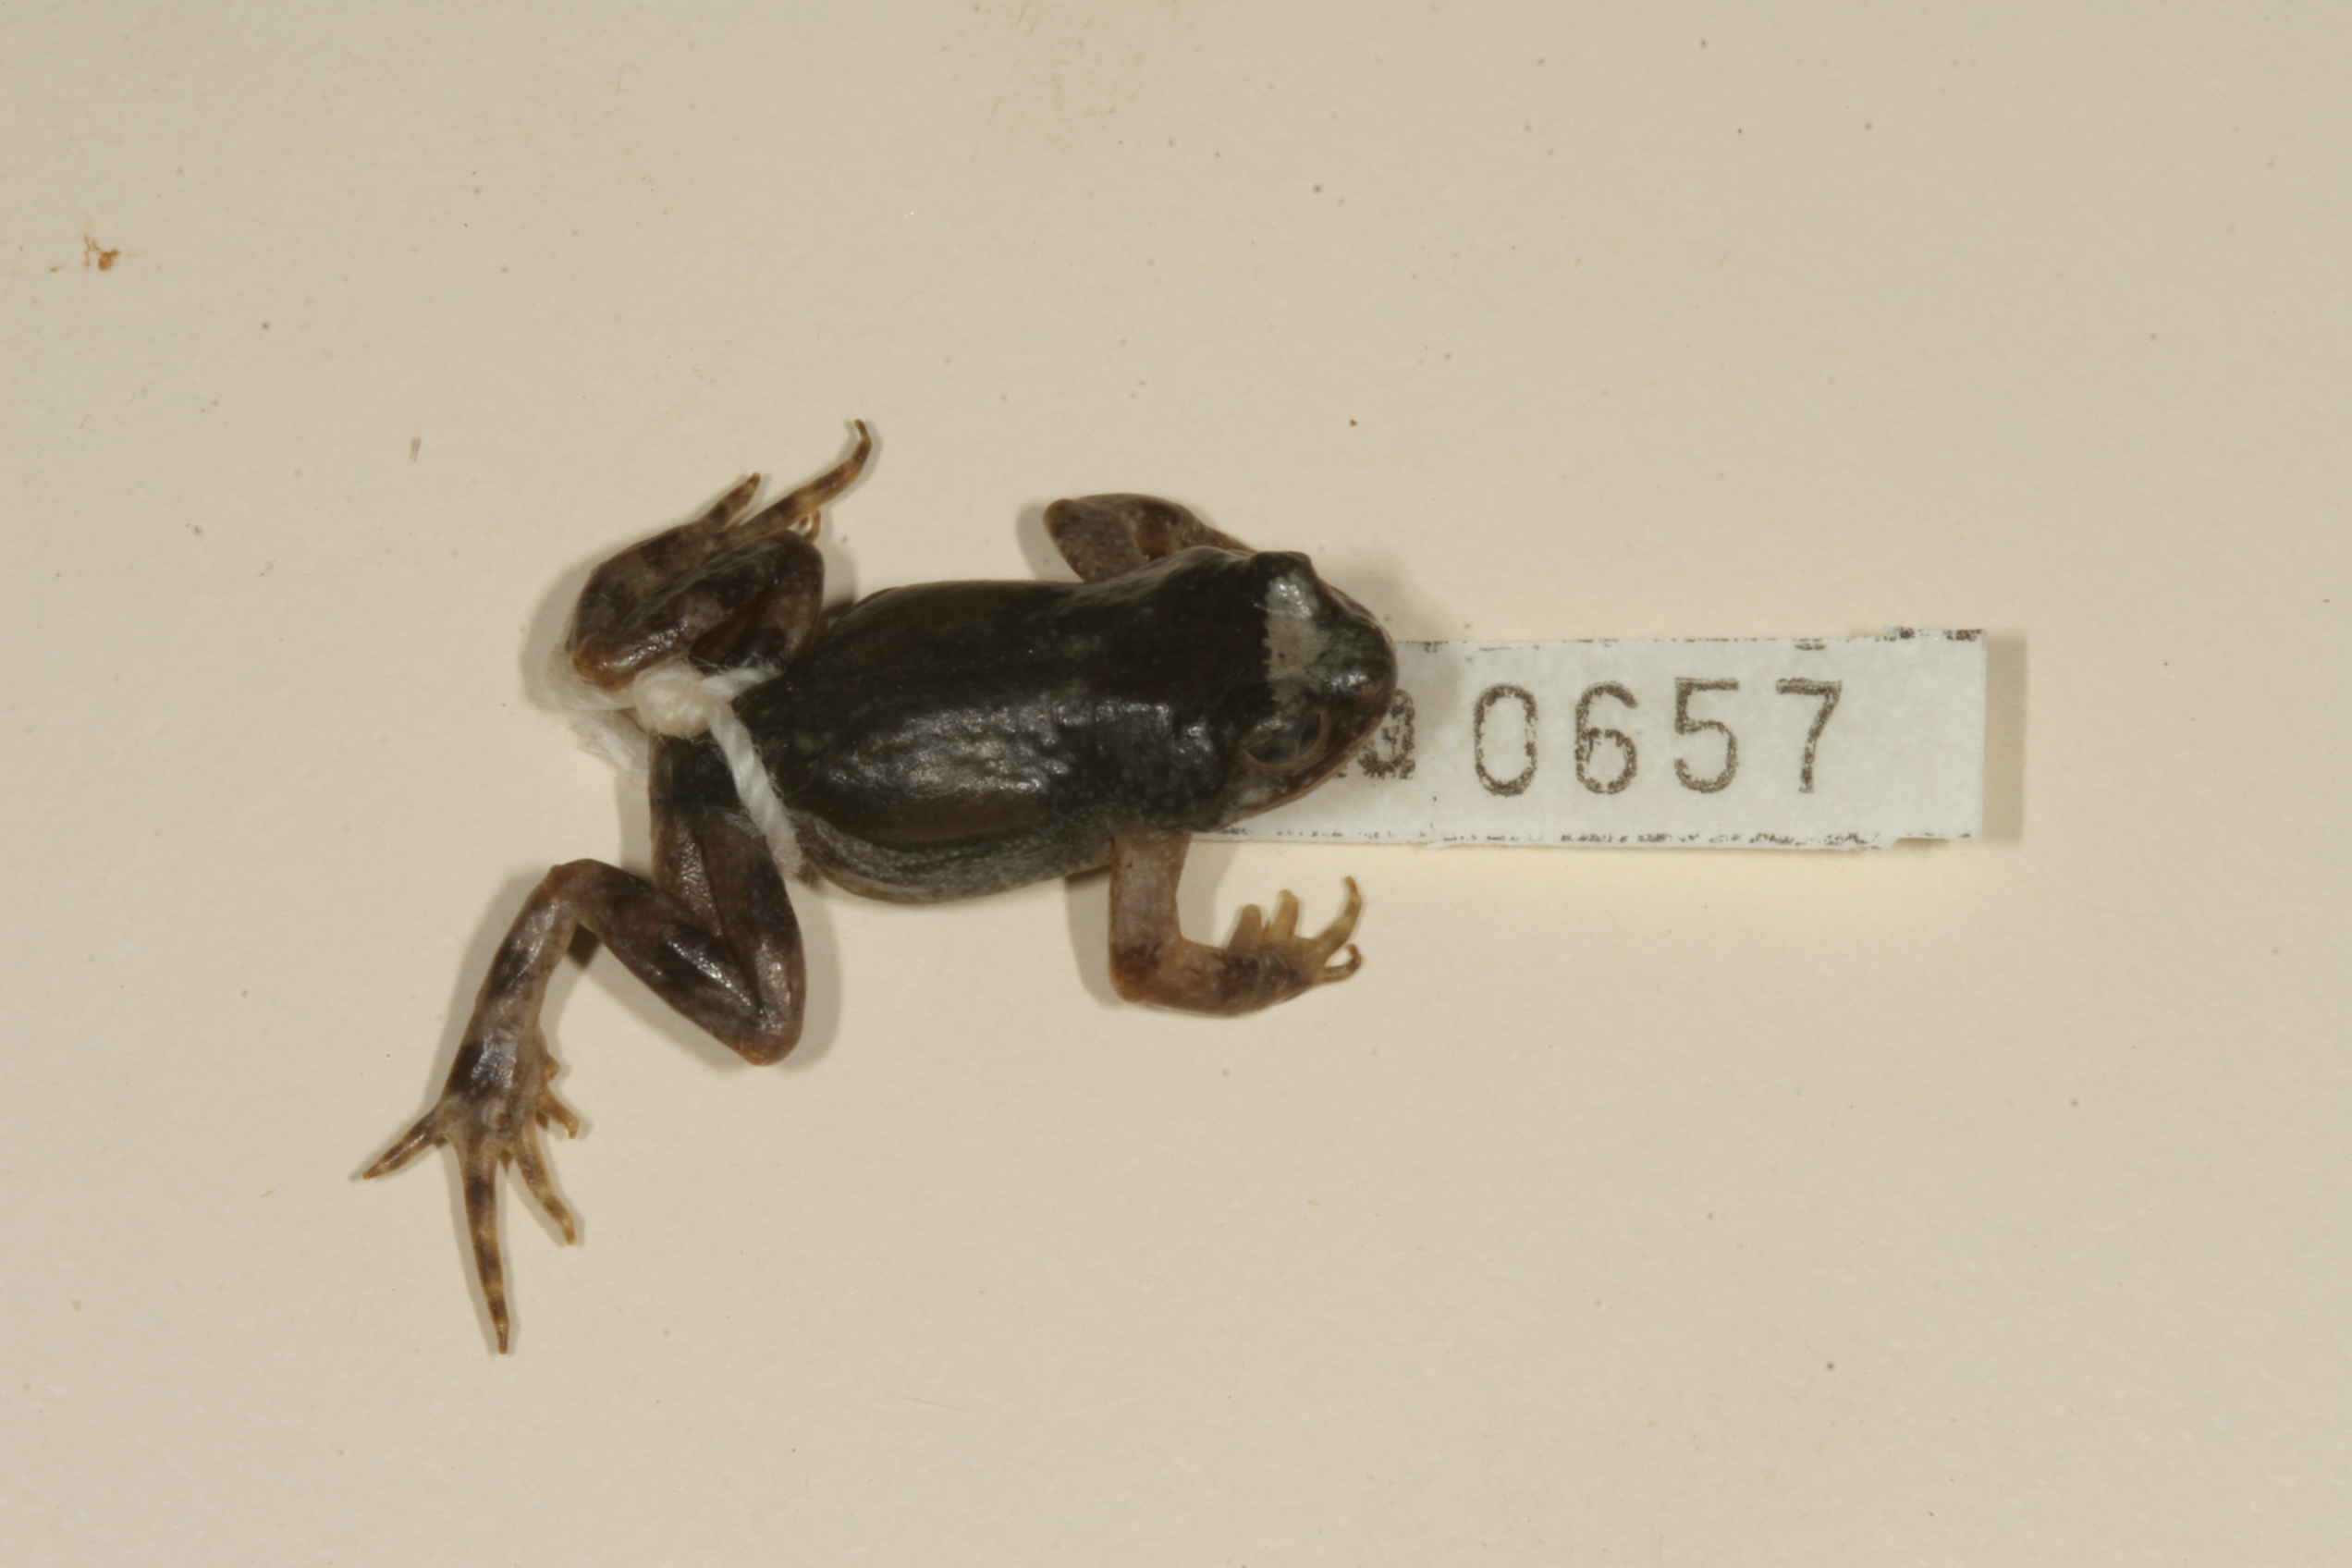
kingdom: Animalia
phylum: Chordata
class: Amphibia
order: Anura
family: Pyxicephalidae
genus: Cacosternum
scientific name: Cacosternum namaquense
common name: Namaqua caco
